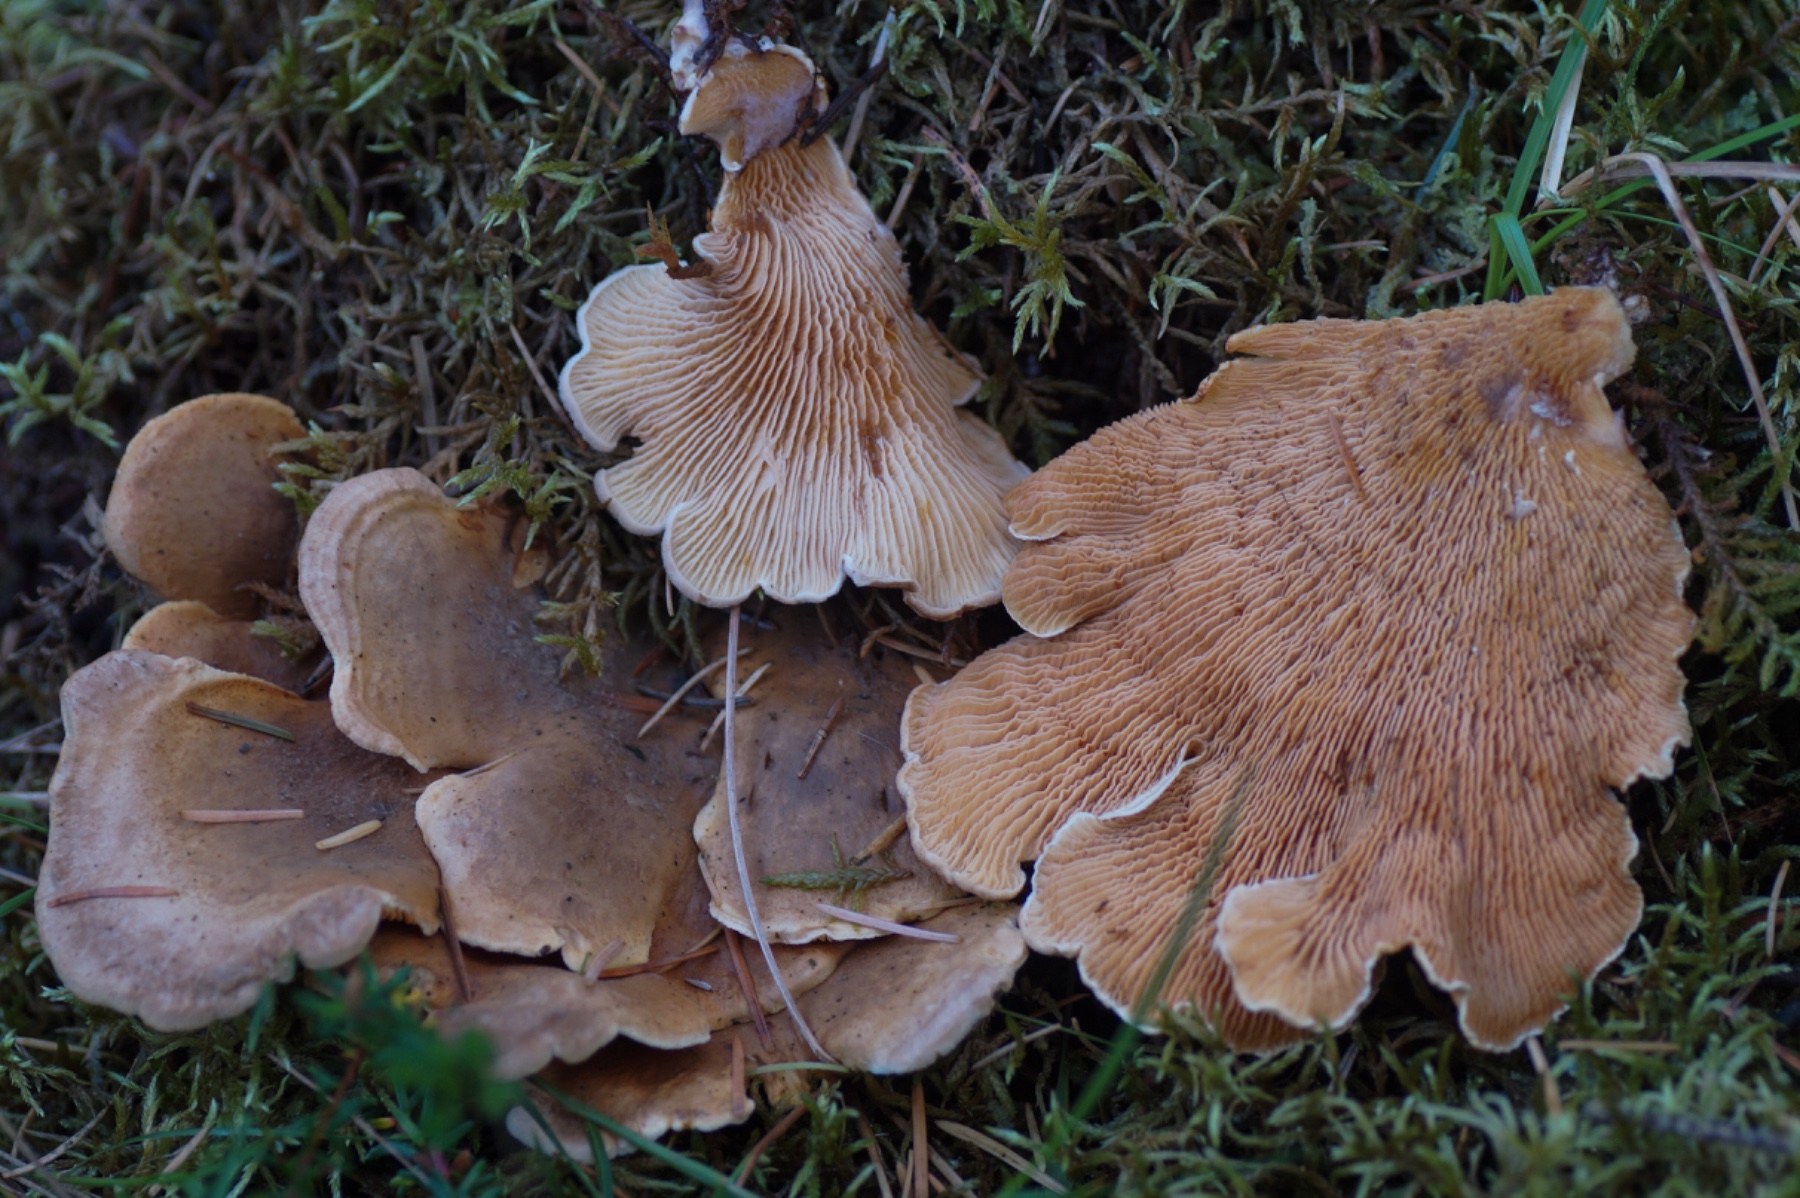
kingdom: Fungi
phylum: Basidiomycota
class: Agaricomycetes
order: Boletales
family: Tapinellaceae
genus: Tapinella
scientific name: Tapinella panuoides
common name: tømmer-viftesvamp
